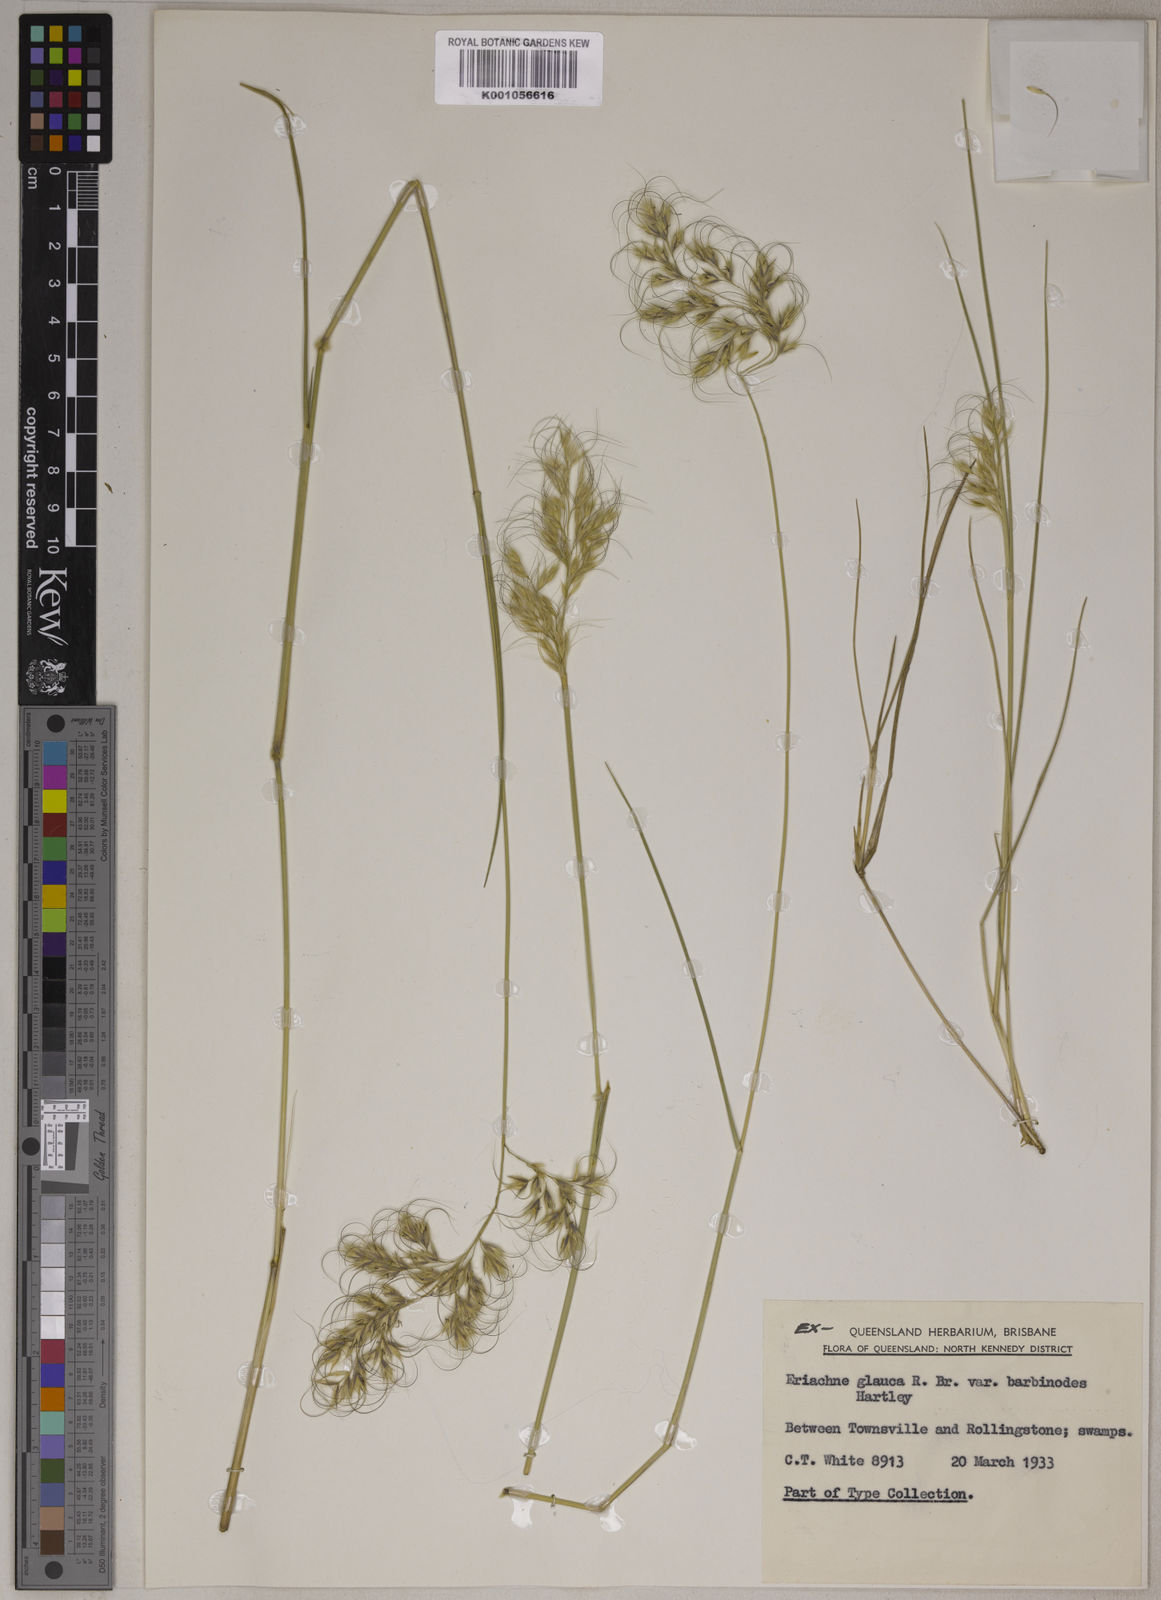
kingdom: Plantae
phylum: Tracheophyta
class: Liliopsida
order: Poales
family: Poaceae
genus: Eriachne
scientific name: Eriachne glauca
